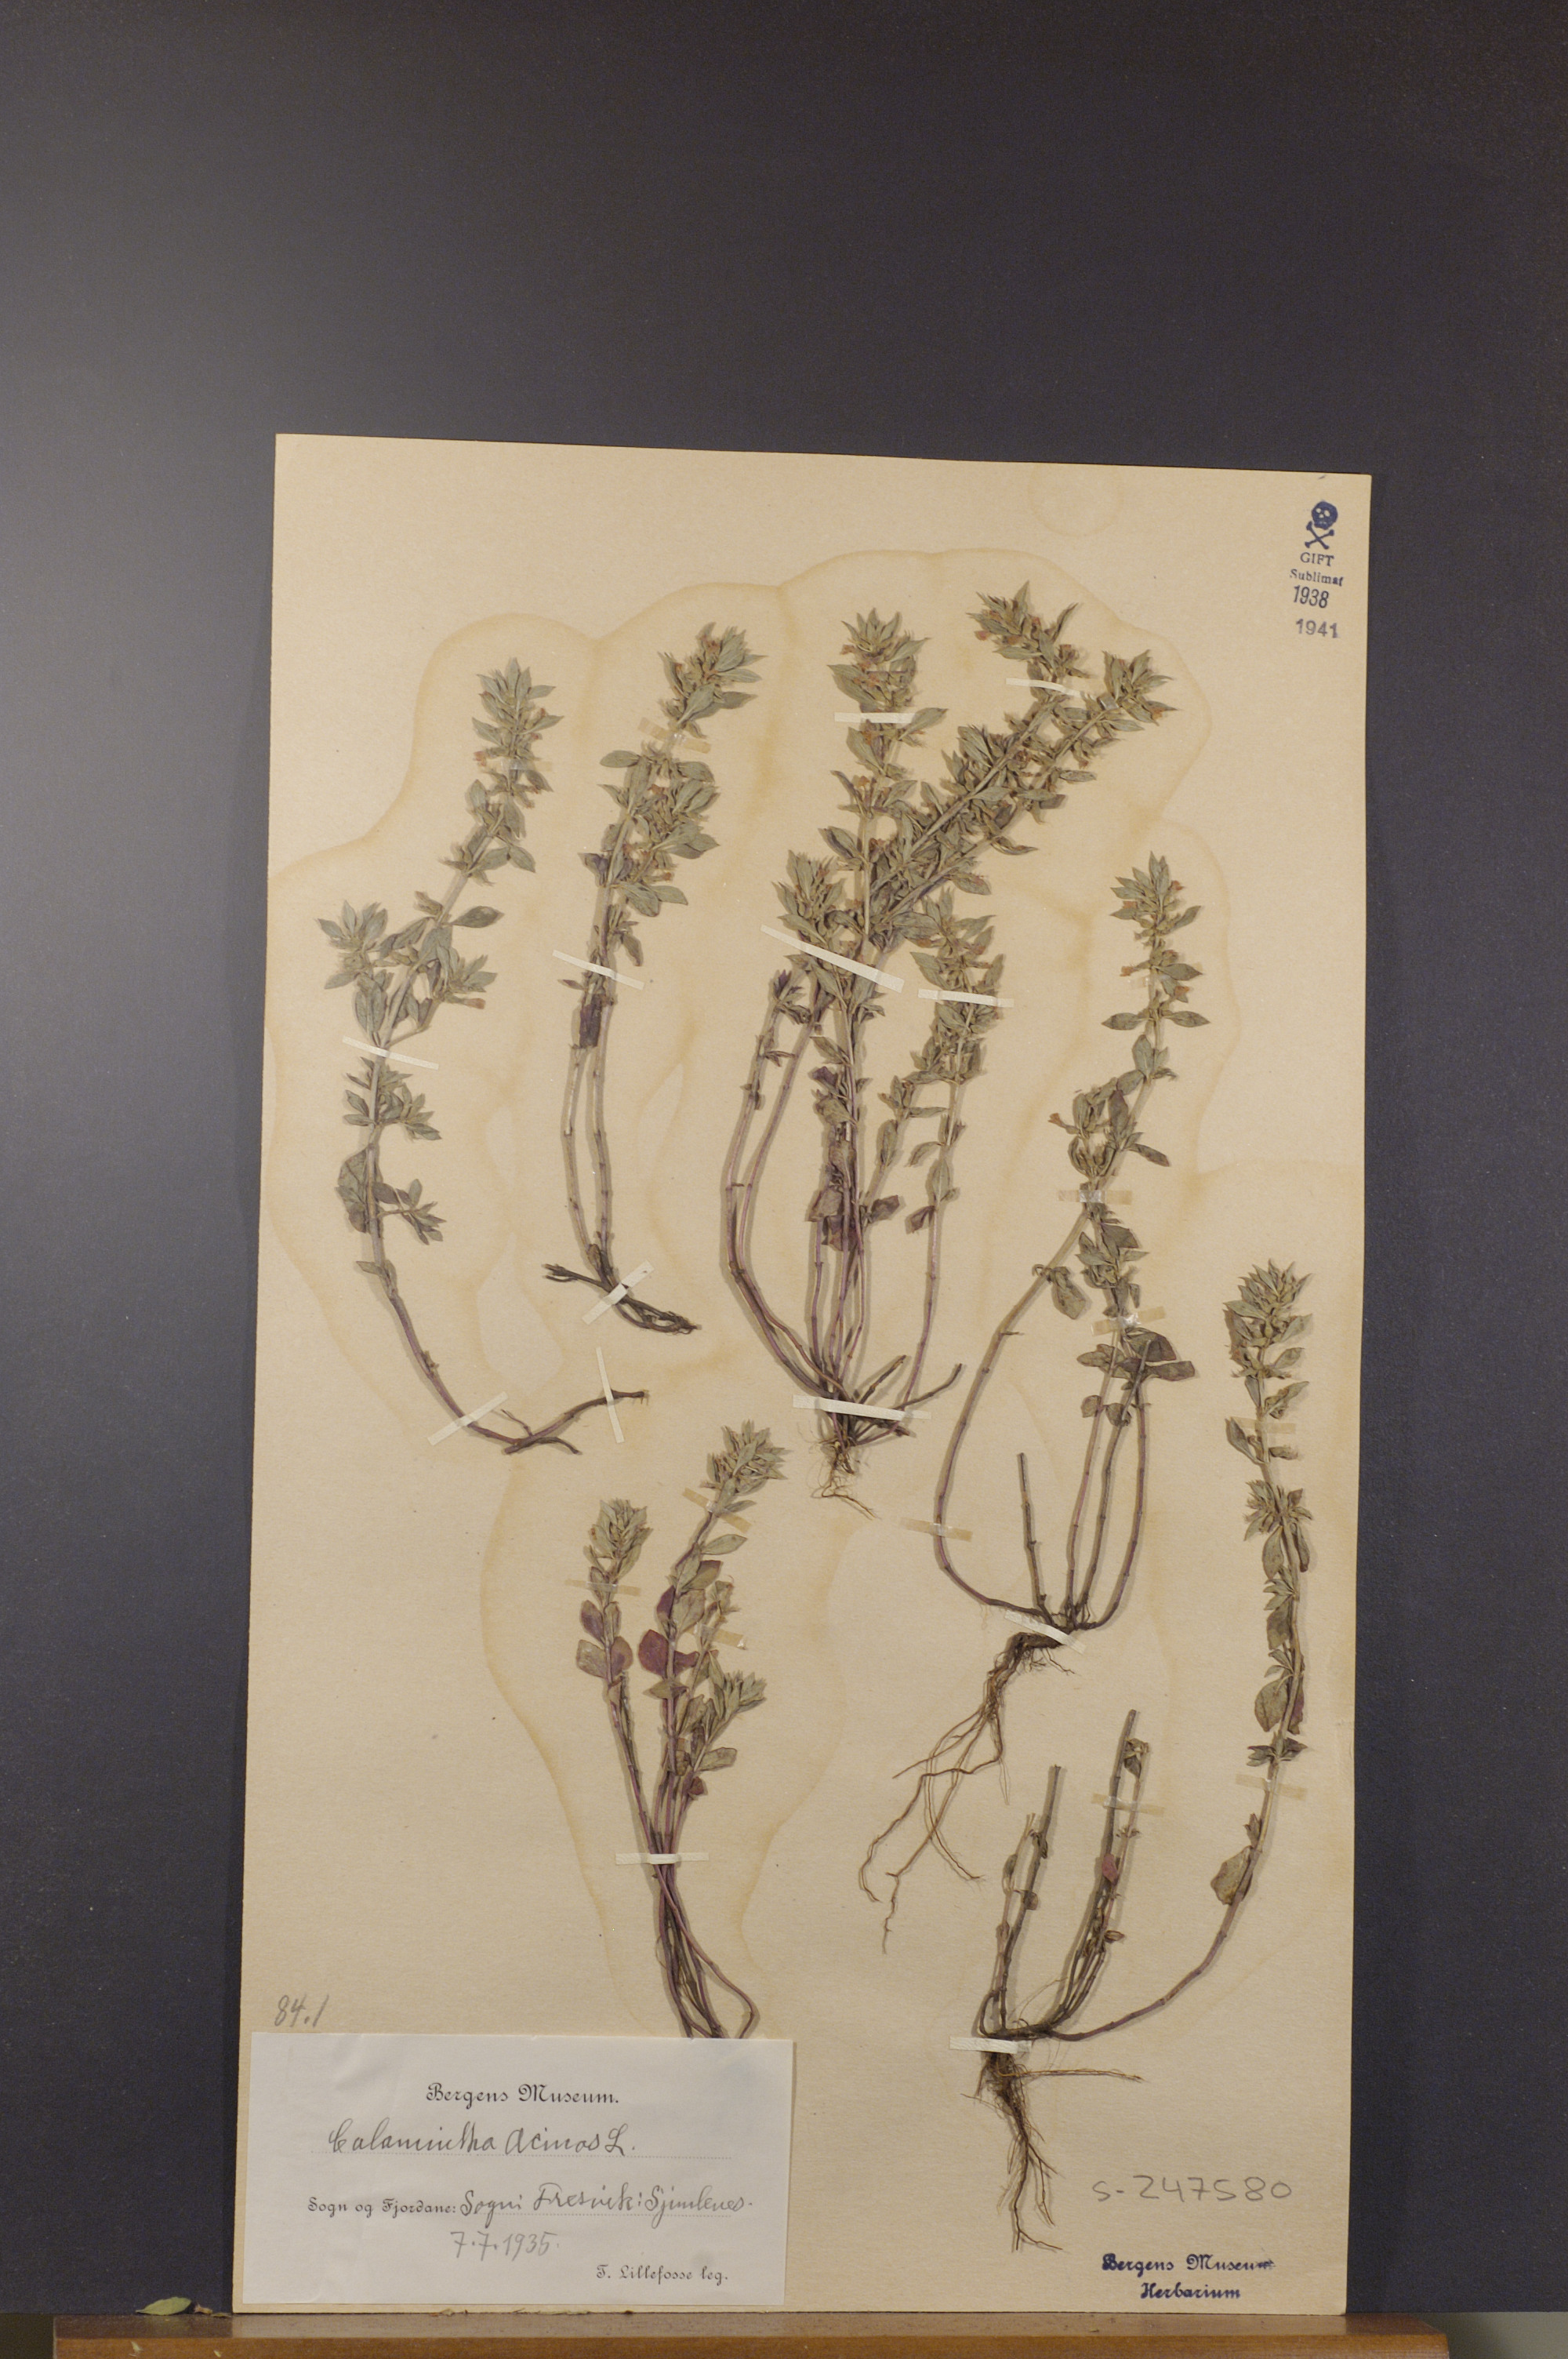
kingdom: Plantae
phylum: Tracheophyta
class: Magnoliopsida
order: Lamiales
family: Lamiaceae
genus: Clinopodium
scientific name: Clinopodium acinos
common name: Basil thyme
